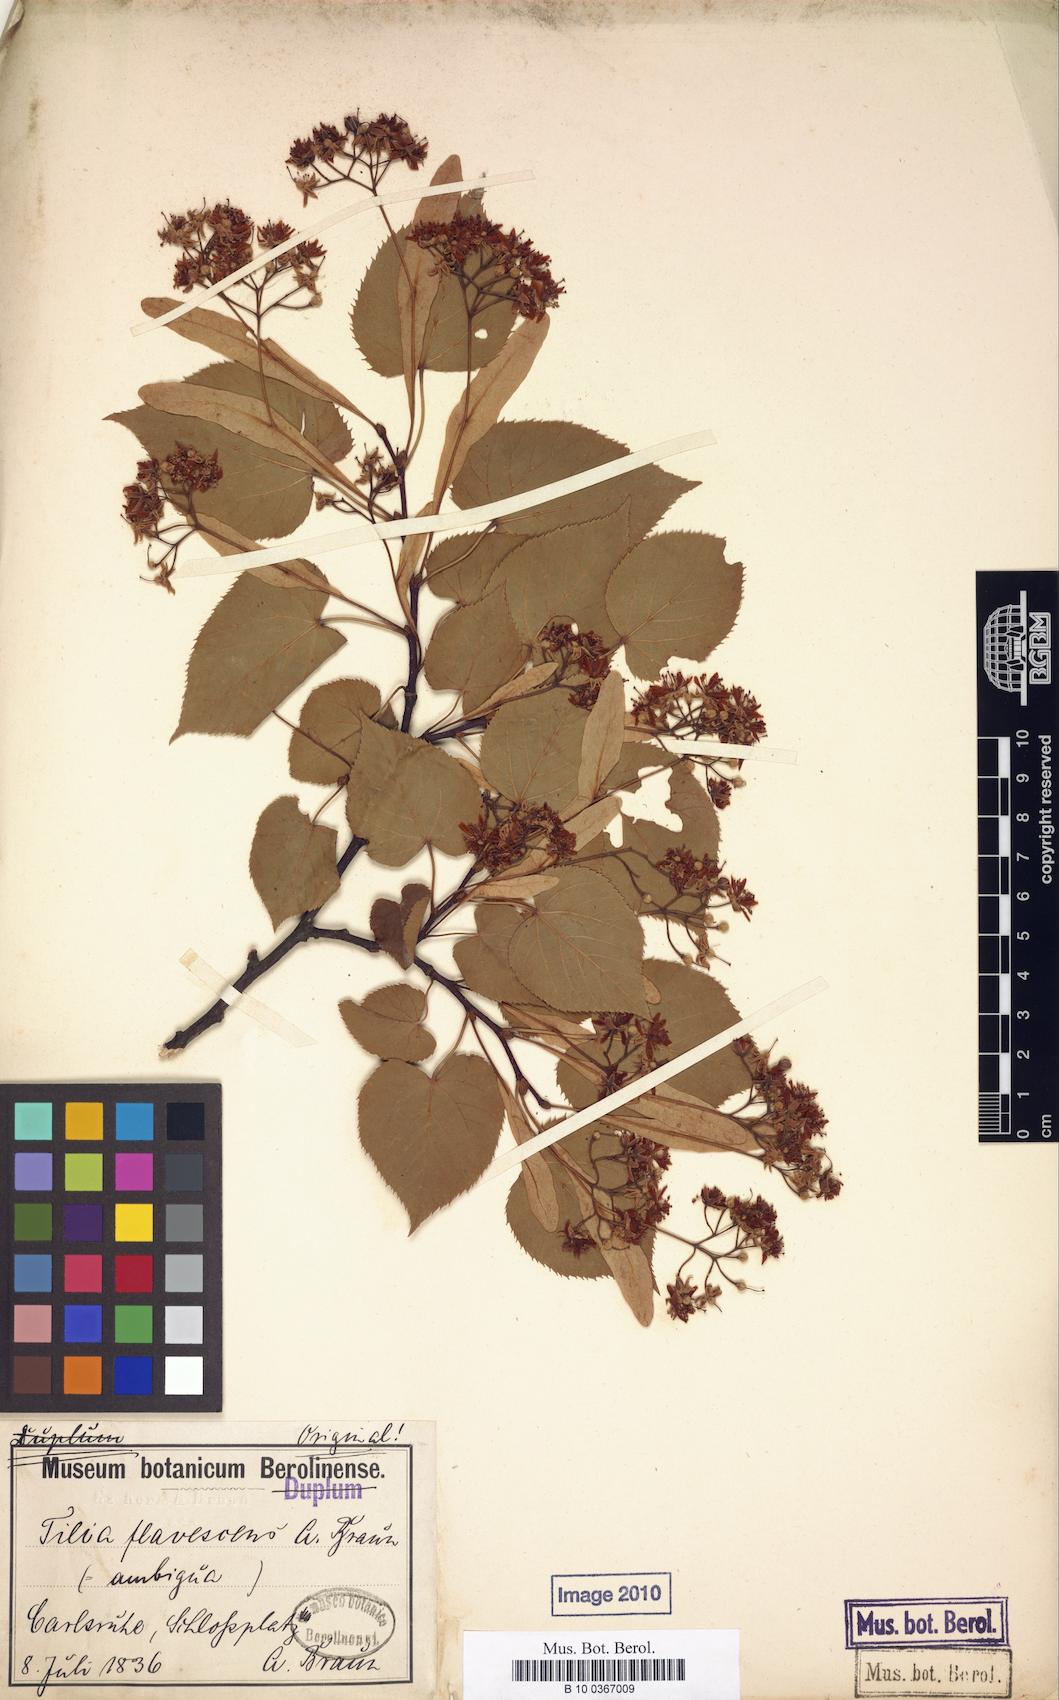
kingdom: Plantae
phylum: Tracheophyta
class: Magnoliopsida
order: Malvales
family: Malvaceae
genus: Tilia
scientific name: Tilia flavescens
